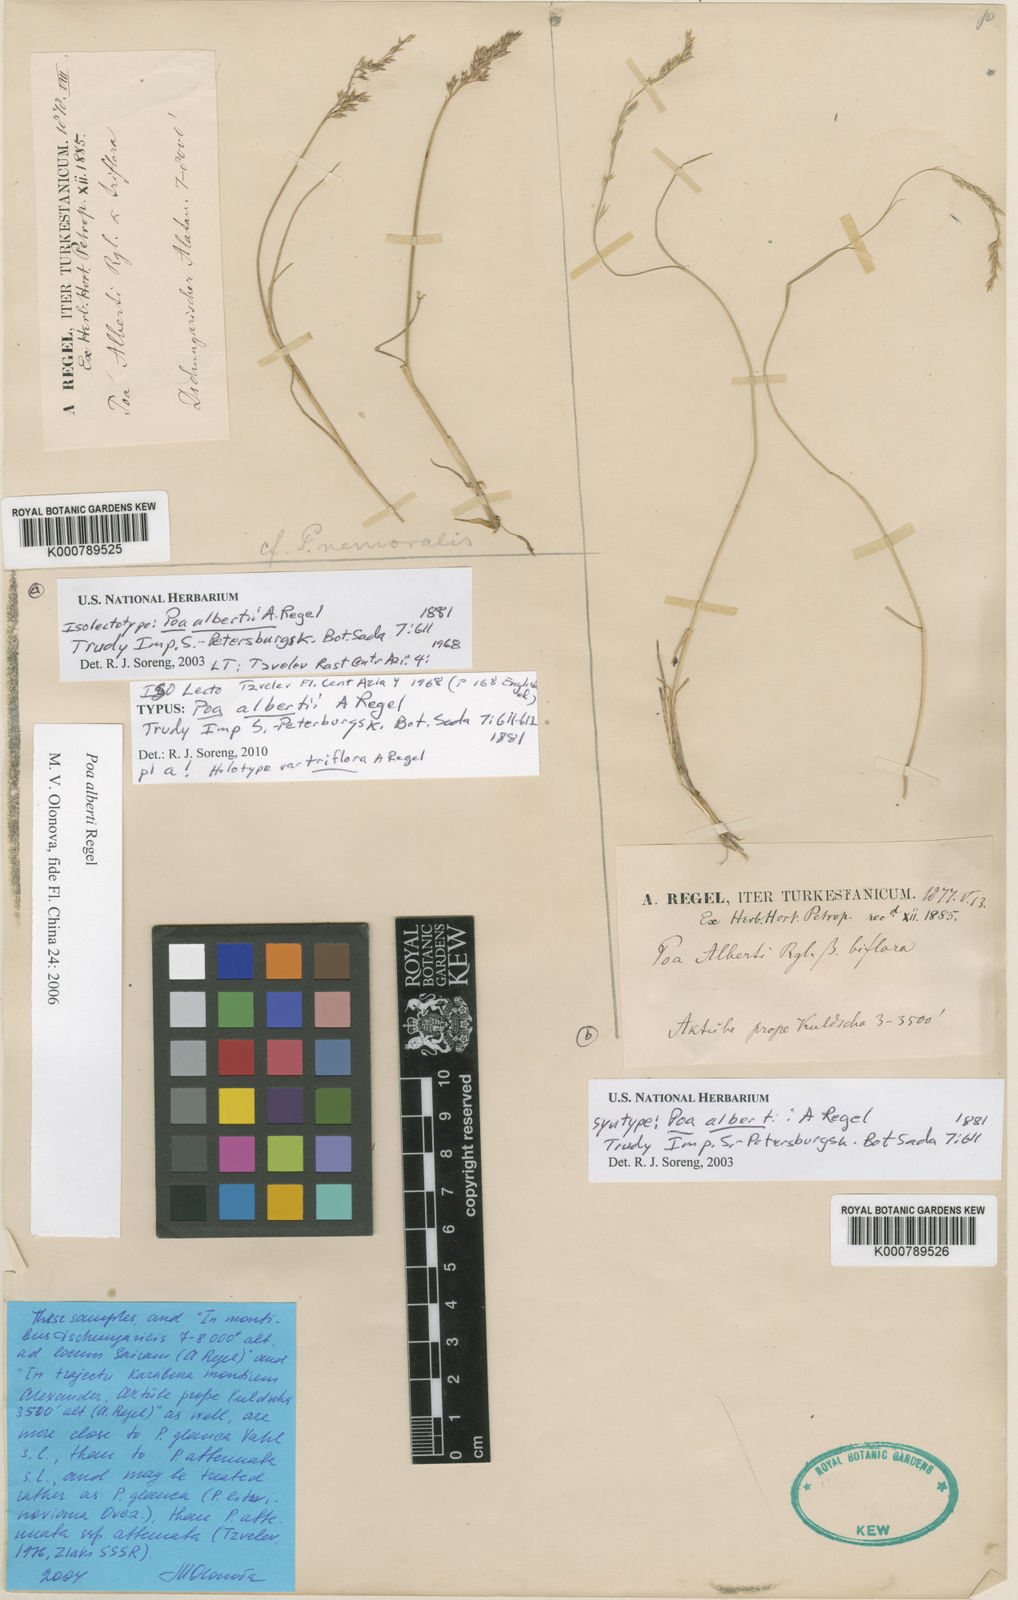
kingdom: Plantae
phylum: Tracheophyta
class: Liliopsida
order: Poales
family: Poaceae
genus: Poa
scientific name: Poa alberti
